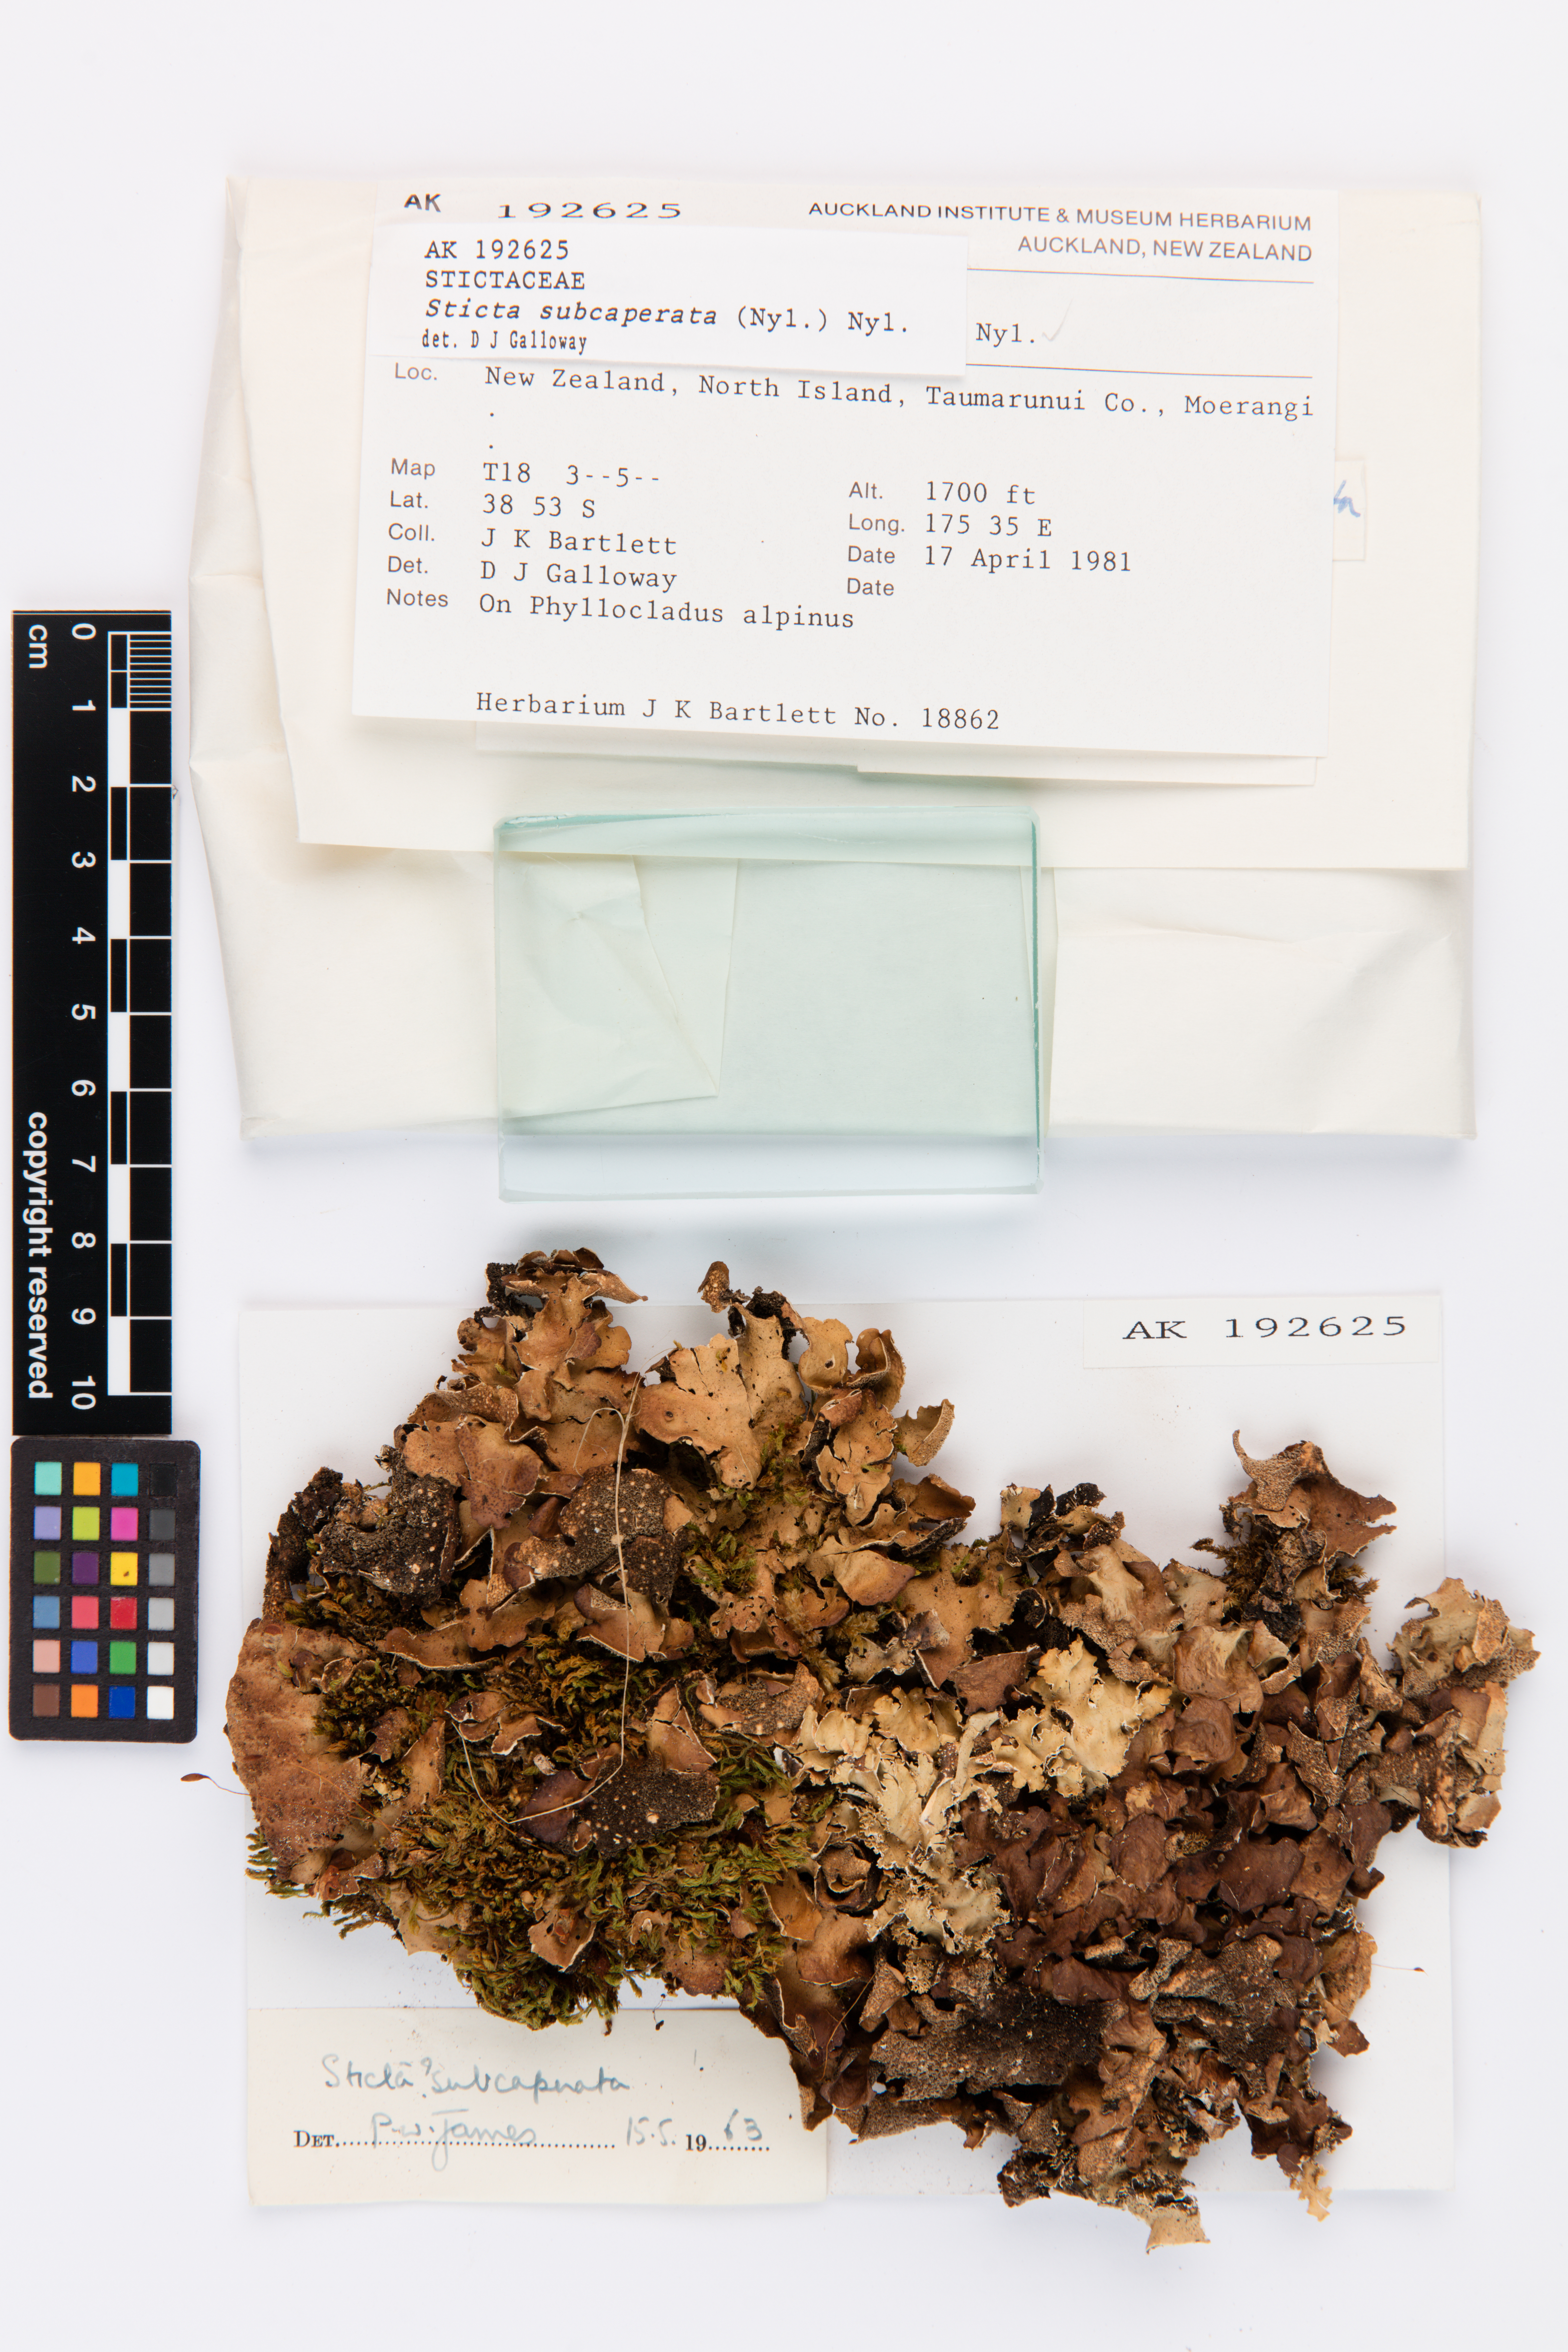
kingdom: Fungi
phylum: Ascomycota
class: Lecanoromycetes
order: Peltigerales
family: Lobariaceae
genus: Sticta
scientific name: Sticta subcaperata
